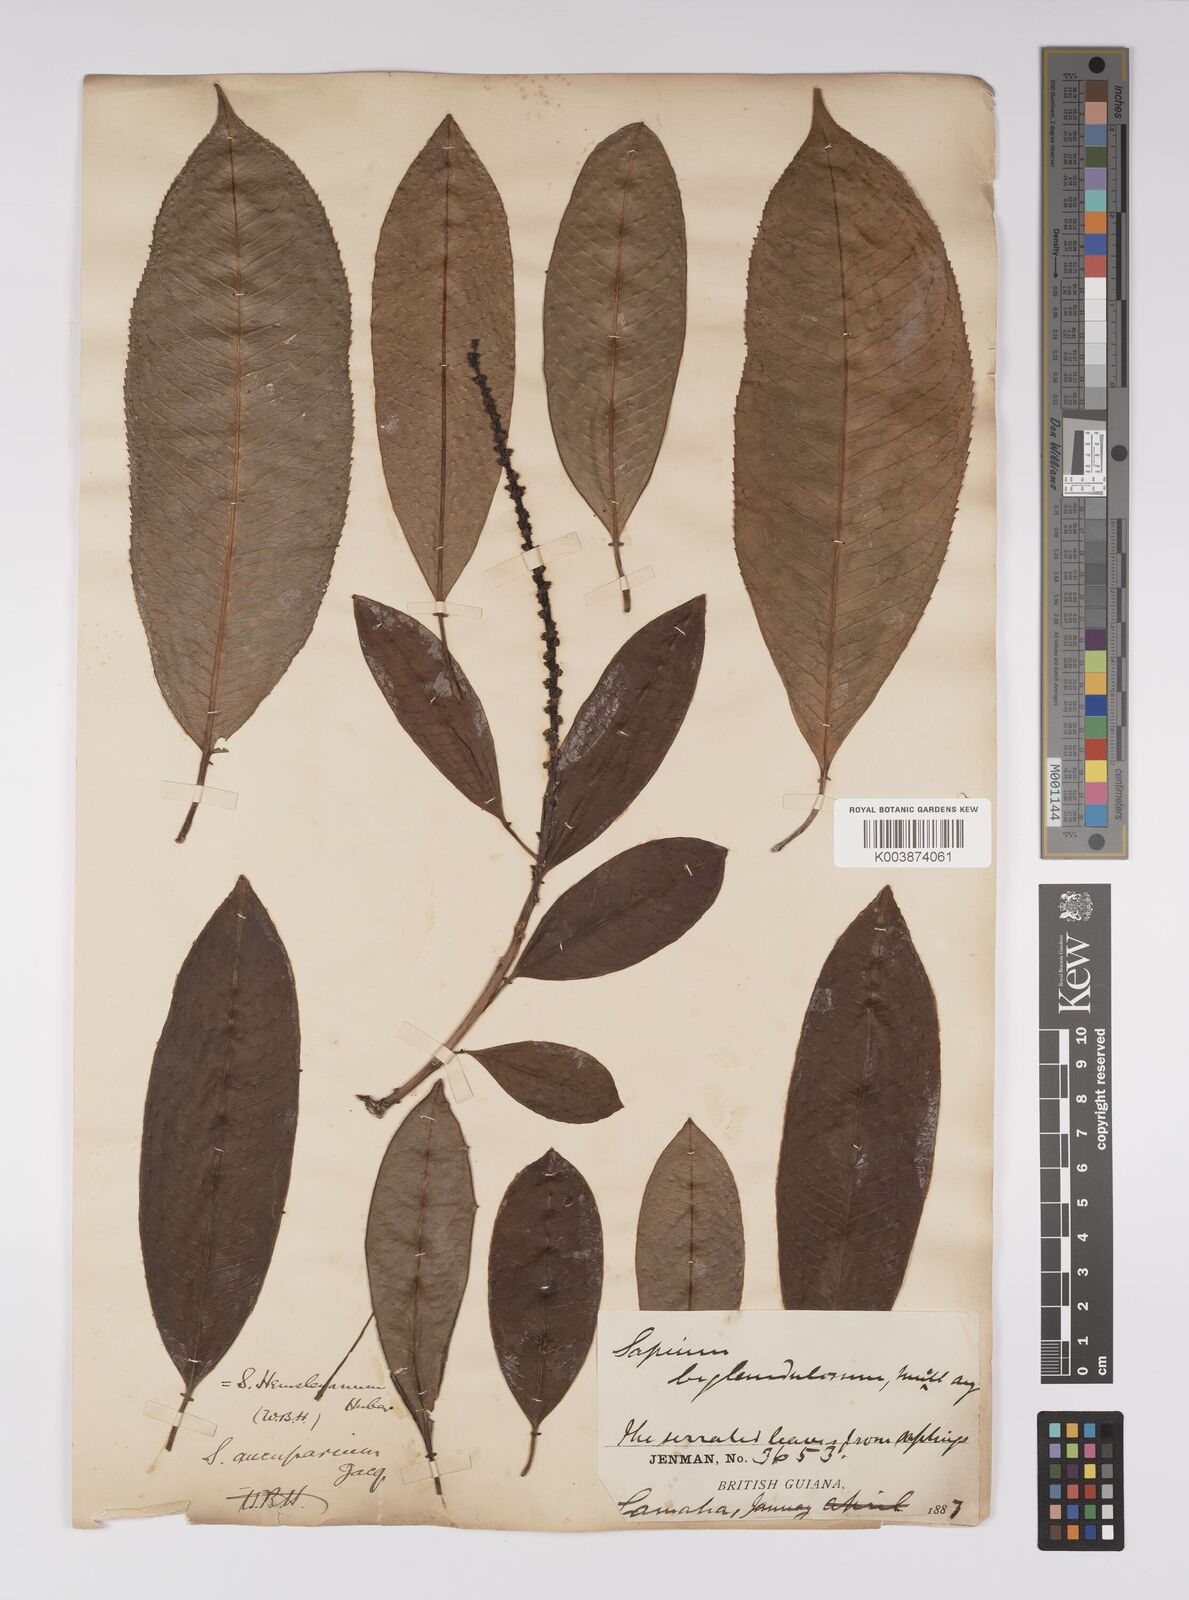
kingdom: Plantae
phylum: Tracheophyta
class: Magnoliopsida
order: Malpighiales
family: Euphorbiaceae
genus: Sapium
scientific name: Sapium glandulosum
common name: Milktree
